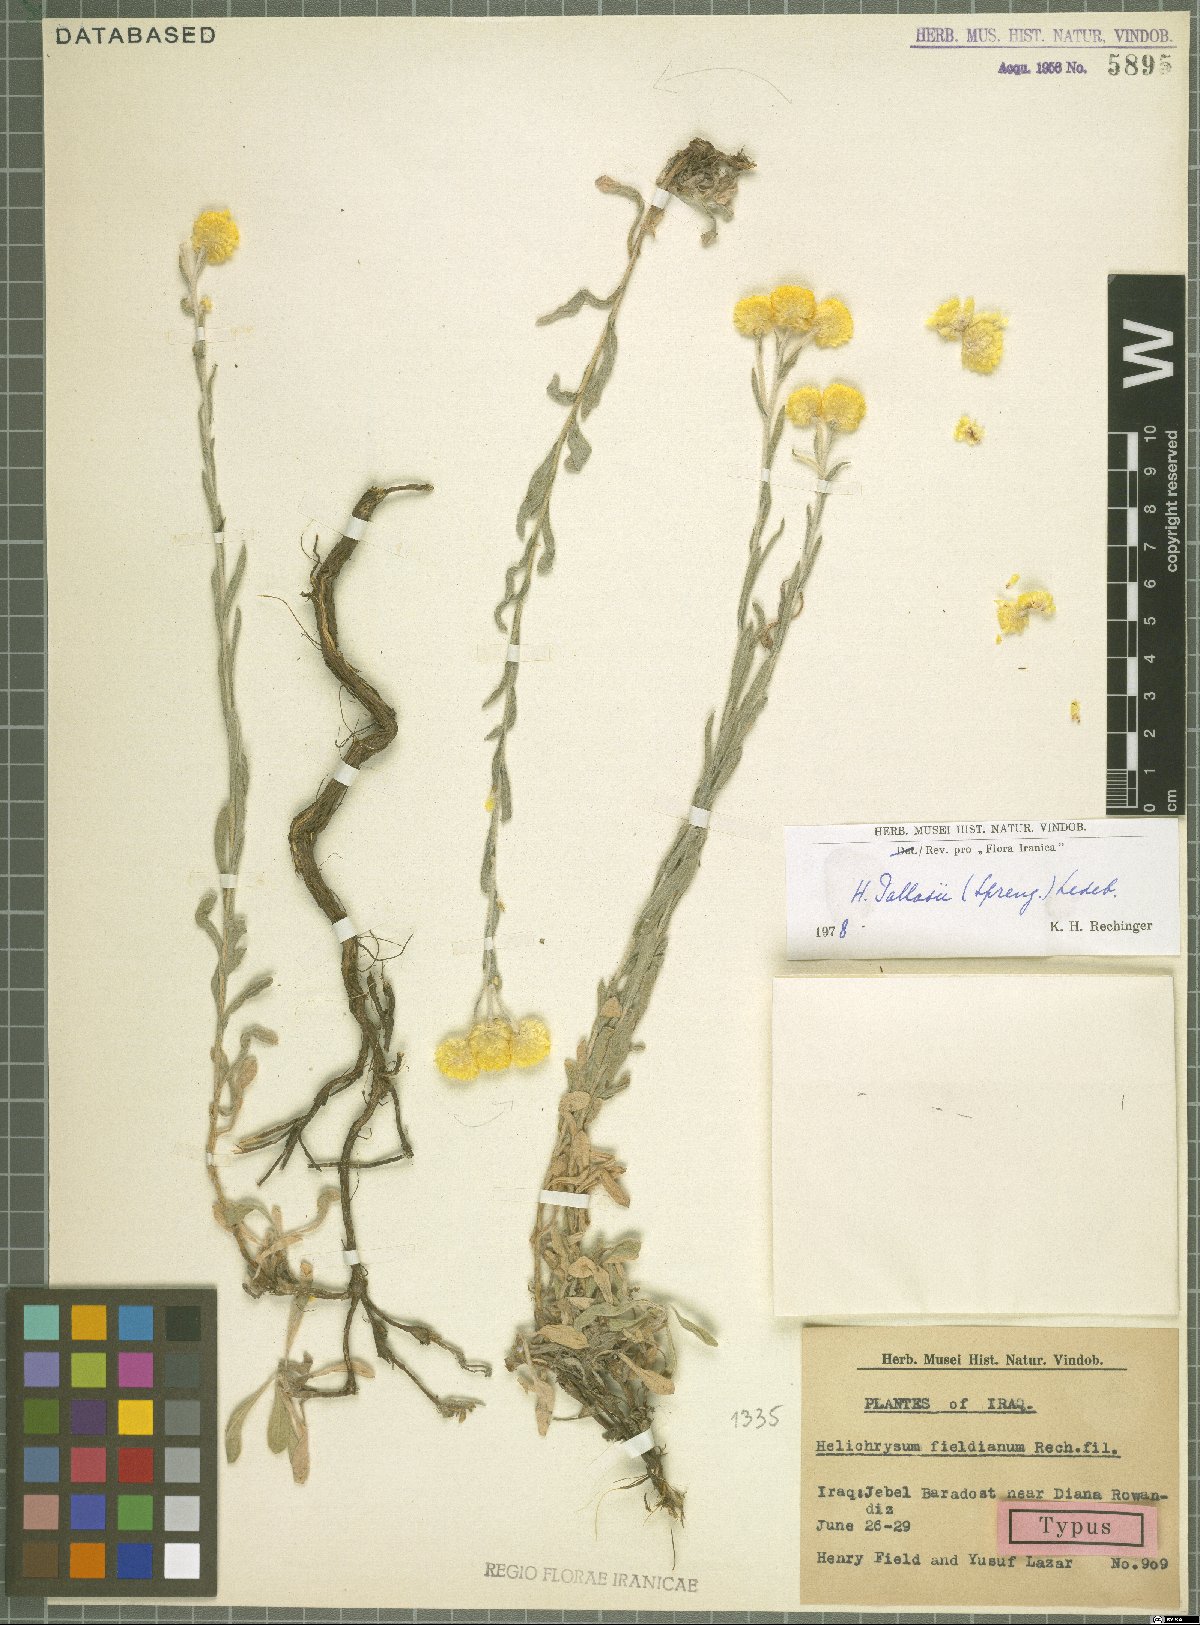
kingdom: Plantae
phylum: Tracheophyta
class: Magnoliopsida
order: Asterales
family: Asteraceae
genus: Helichrysum
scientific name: Helichrysum pallasii
